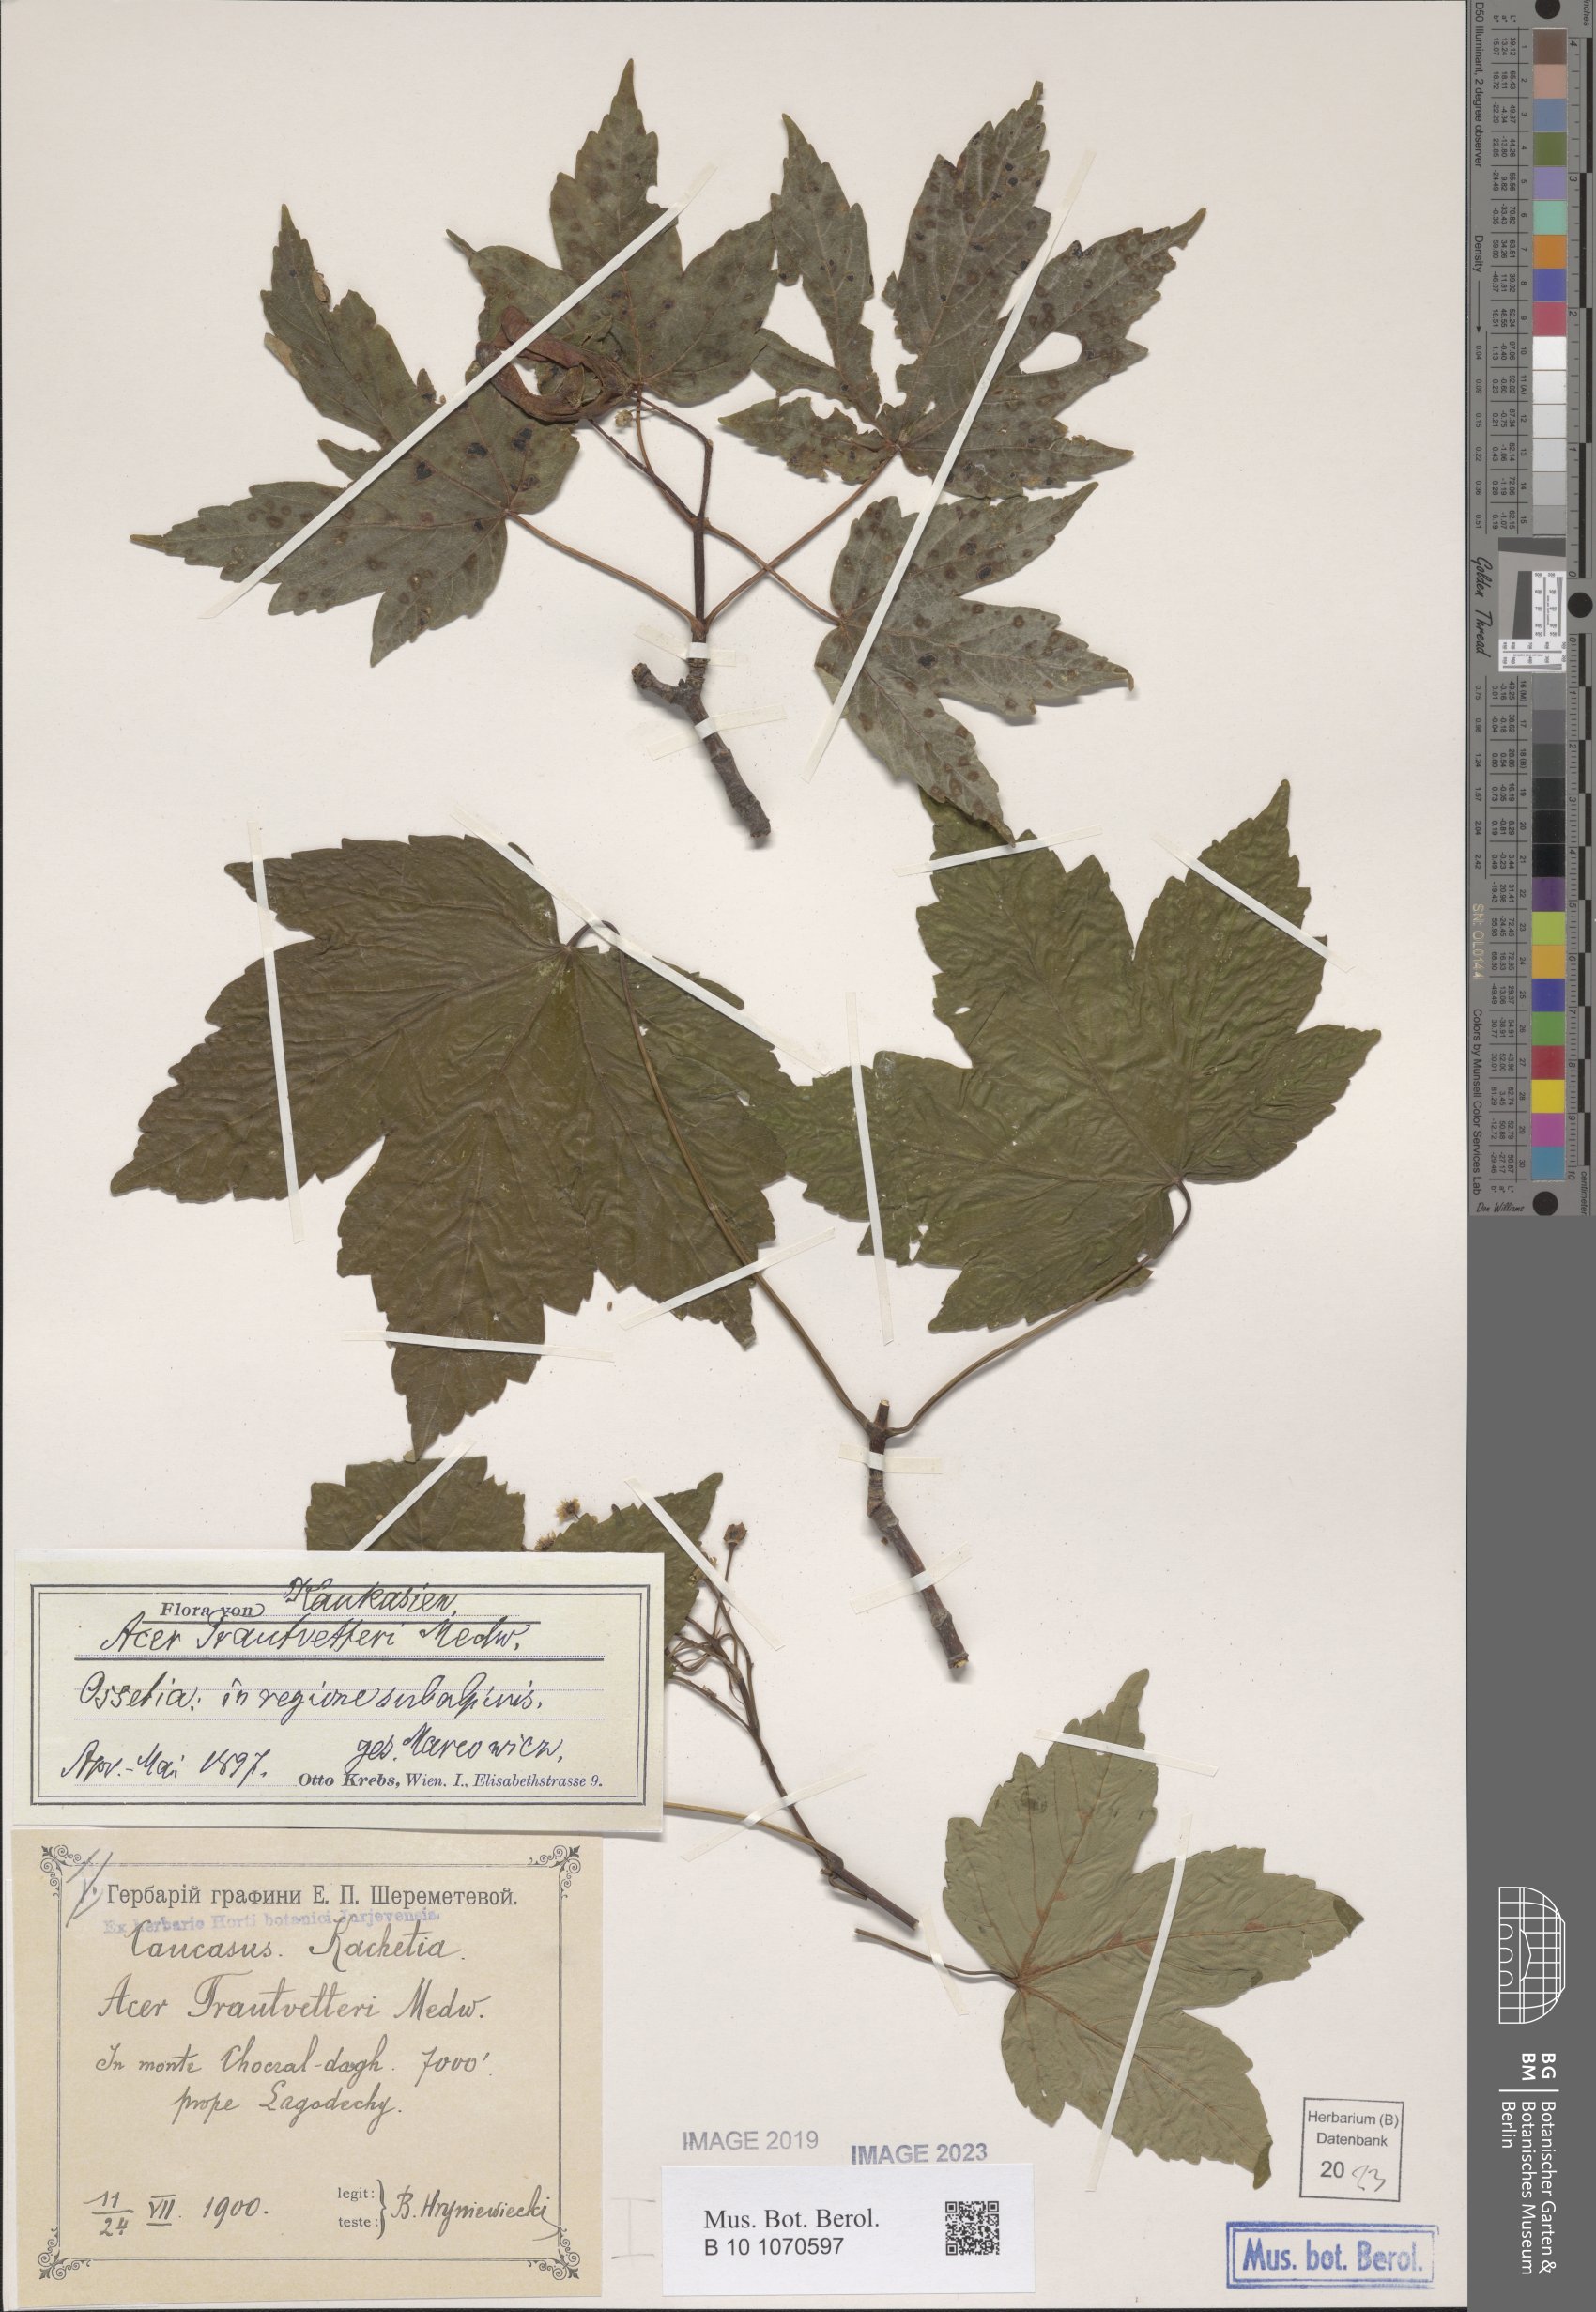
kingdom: Plantae
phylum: Tracheophyta
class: Magnoliopsida
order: Sapindales
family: Sapindaceae
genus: Acer
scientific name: Acer heldreichii
